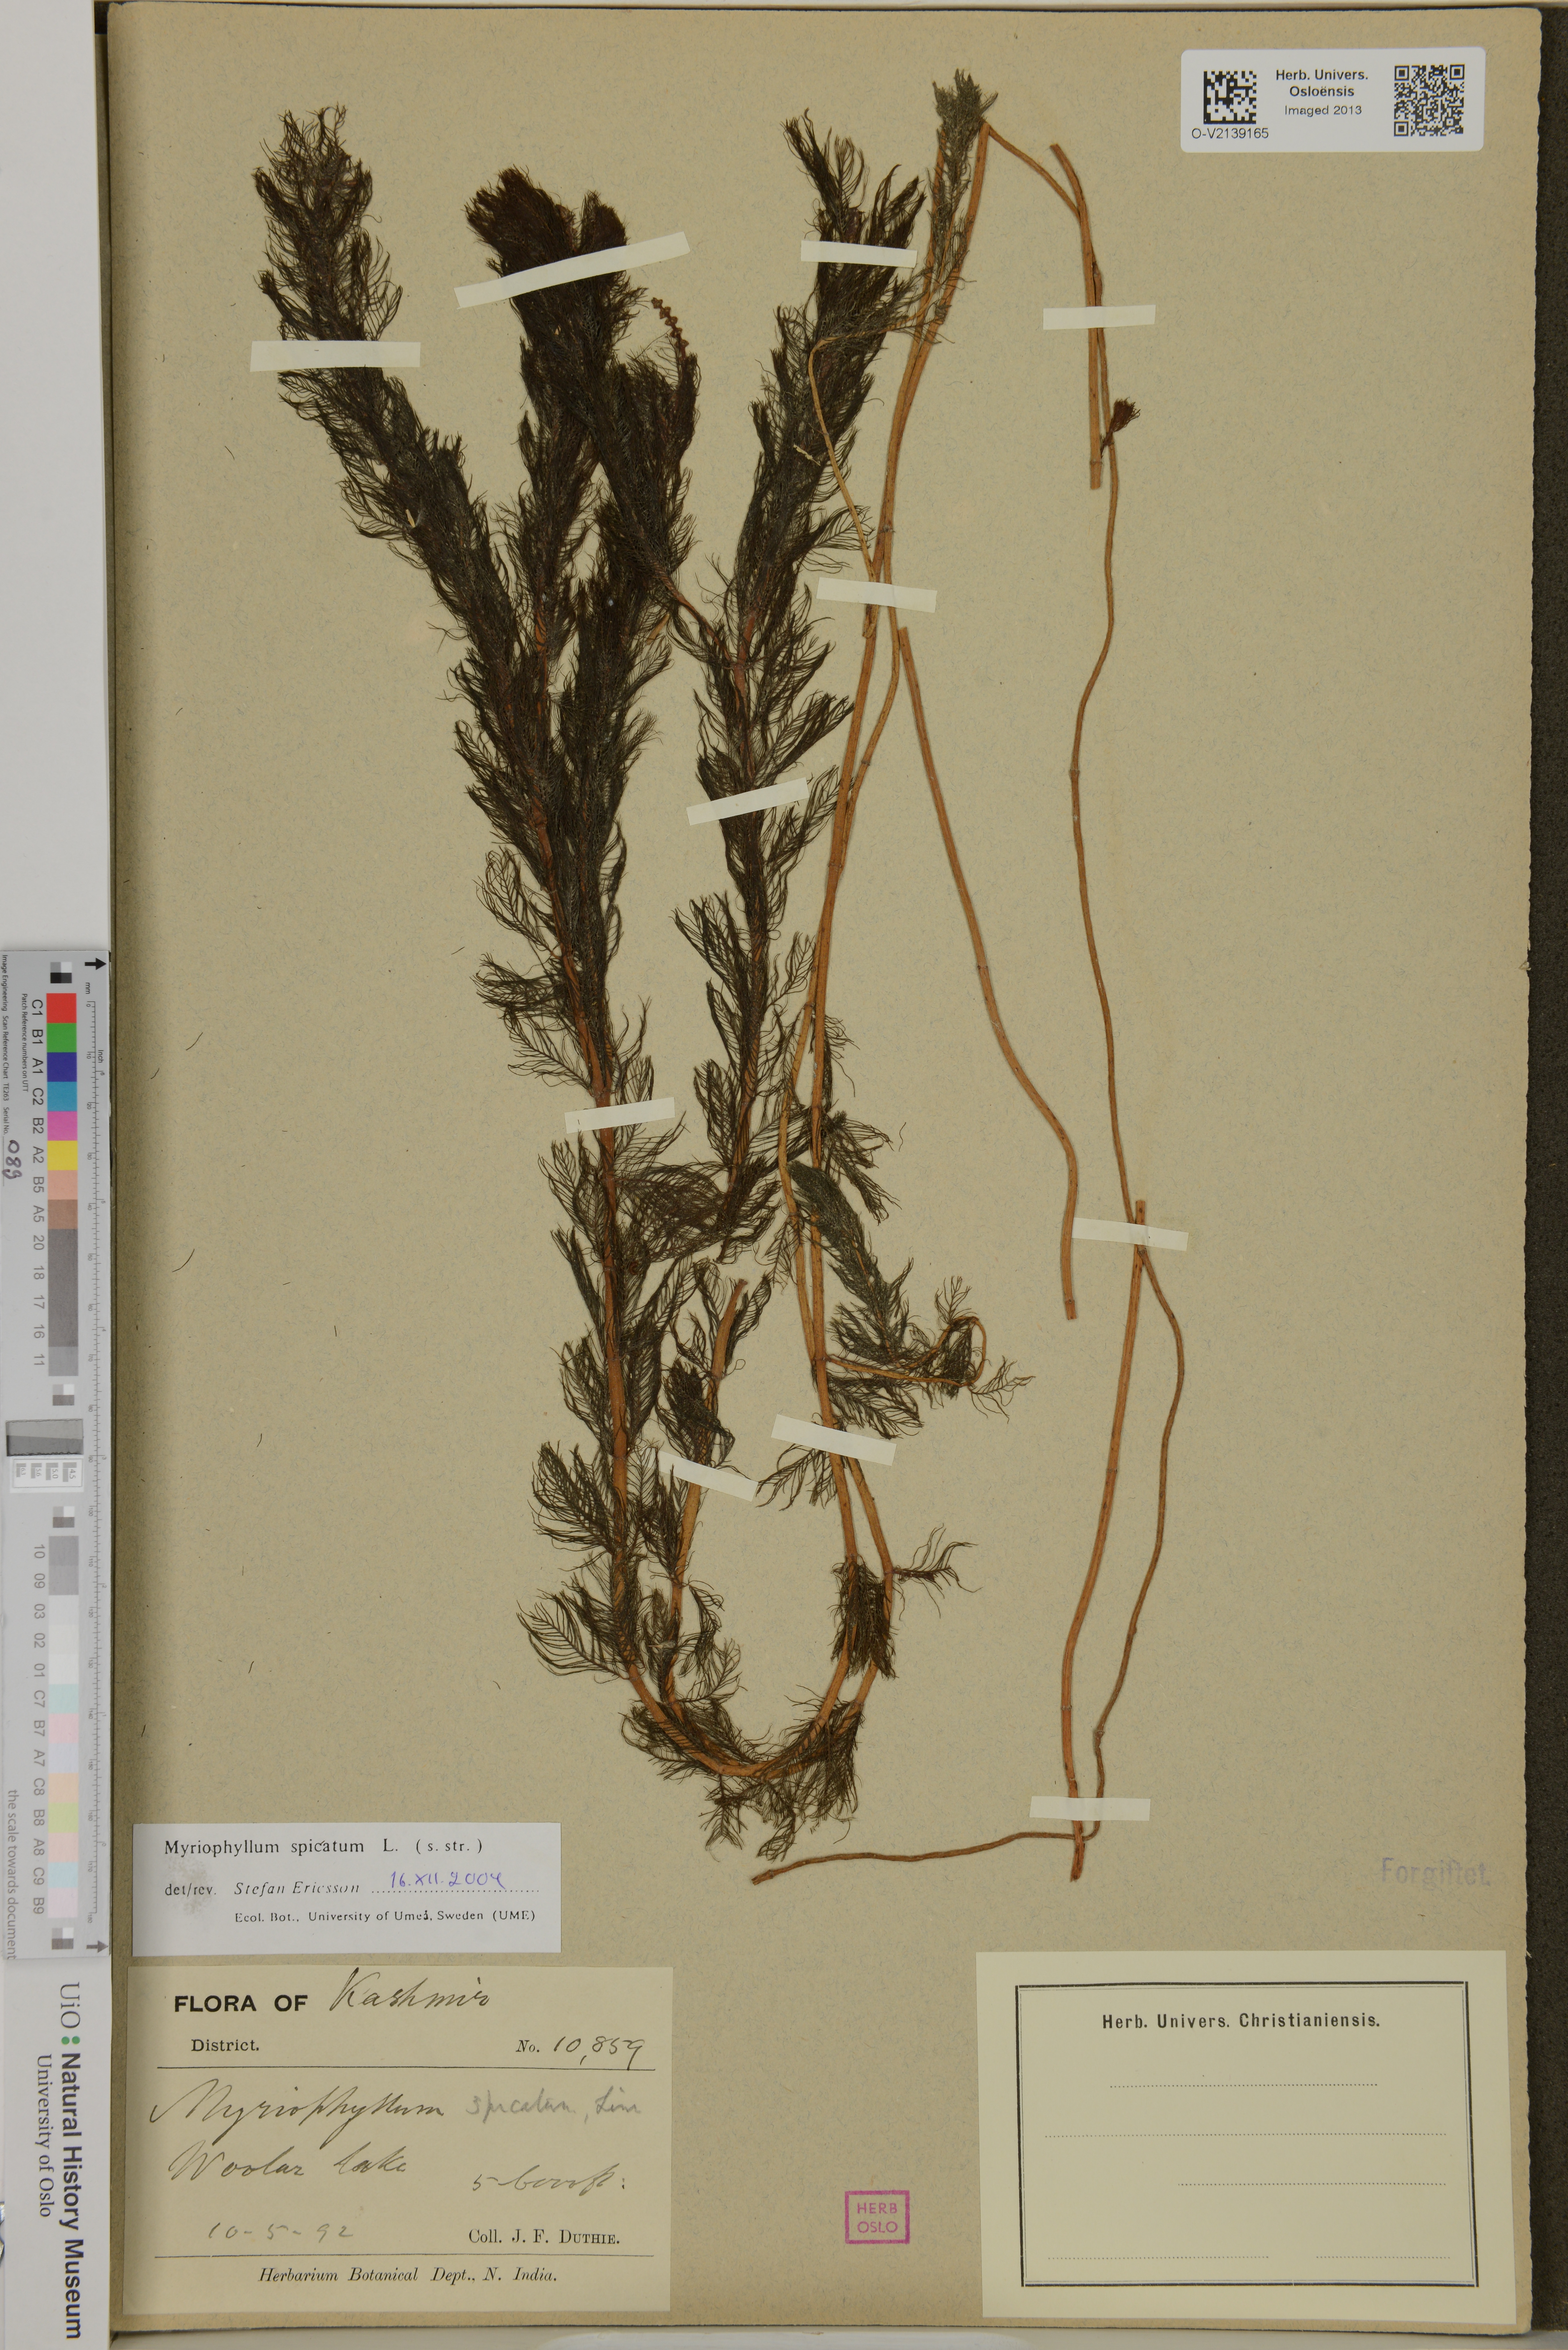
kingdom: Plantae
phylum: Tracheophyta
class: Magnoliopsida
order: Saxifragales
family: Haloragaceae
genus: Myriophyllum
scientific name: Myriophyllum spicatum
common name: Spiked water-milfoil
